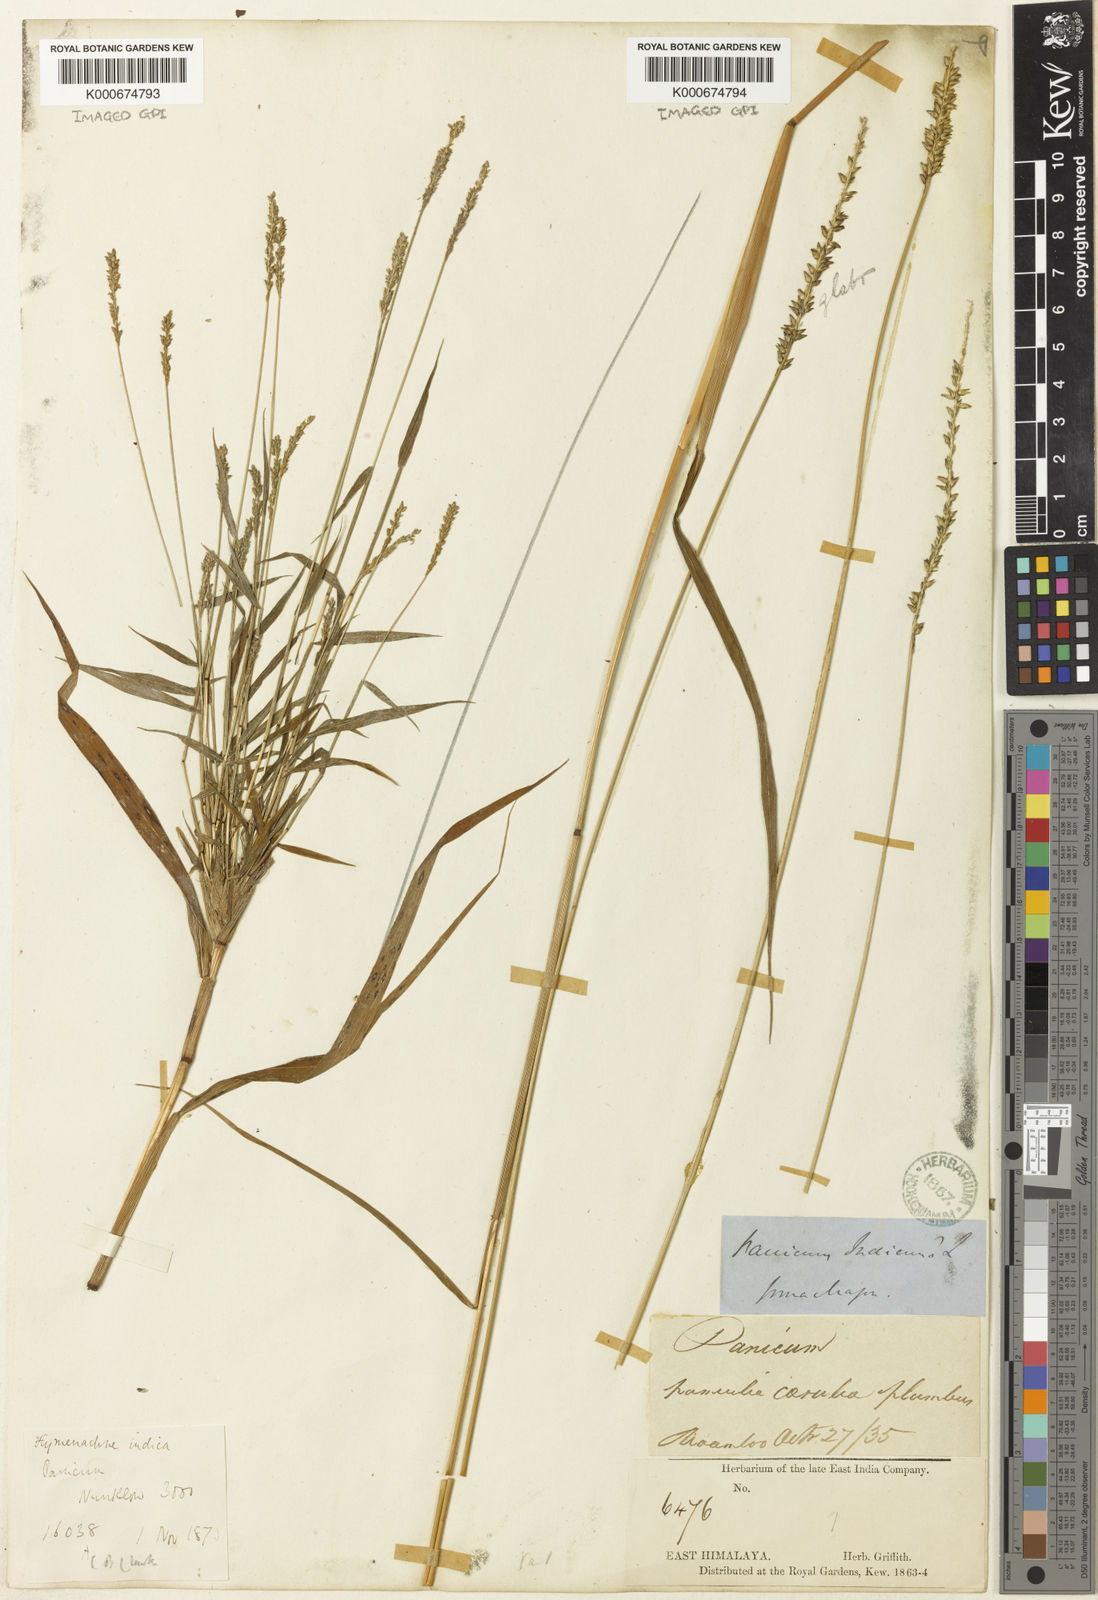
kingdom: Plantae
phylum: Tracheophyta
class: Liliopsida
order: Poales
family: Poaceae
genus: Sacciolepis
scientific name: Sacciolepis
